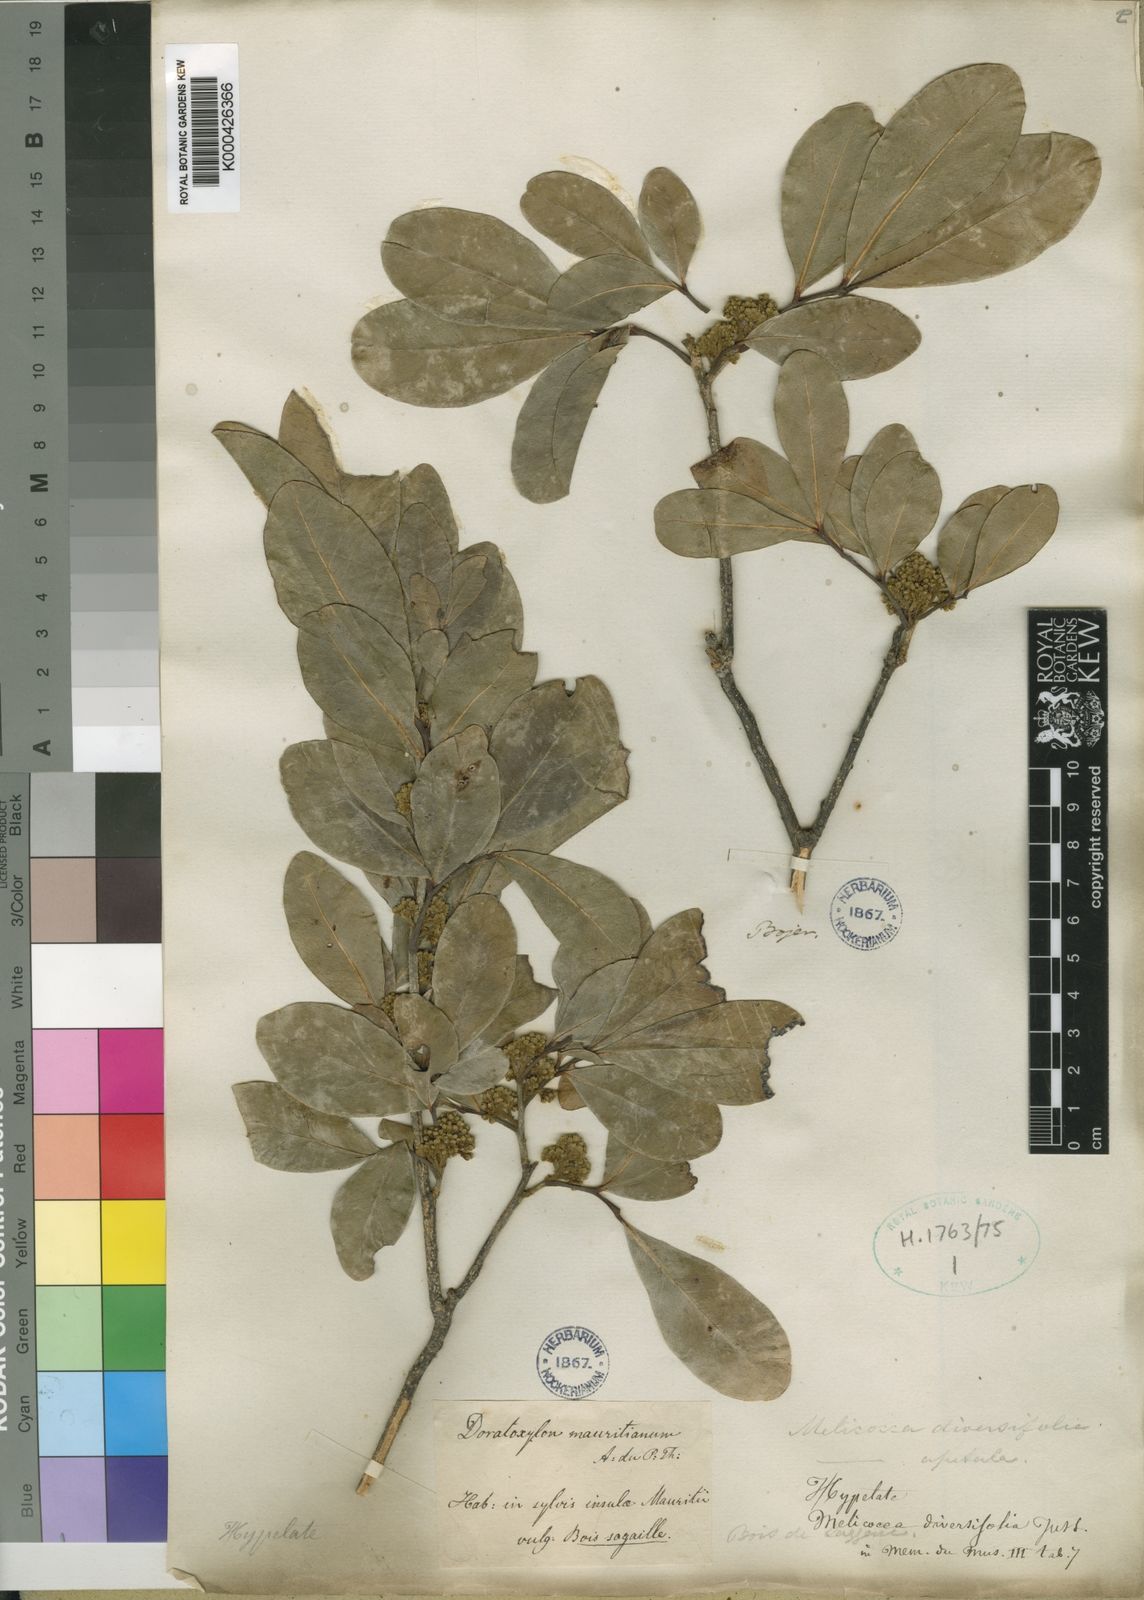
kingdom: Plantae
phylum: Tracheophyta
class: Magnoliopsida
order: Sapindales
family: Sapindaceae
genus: Doratoxylon
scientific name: Doratoxylon apetalum
